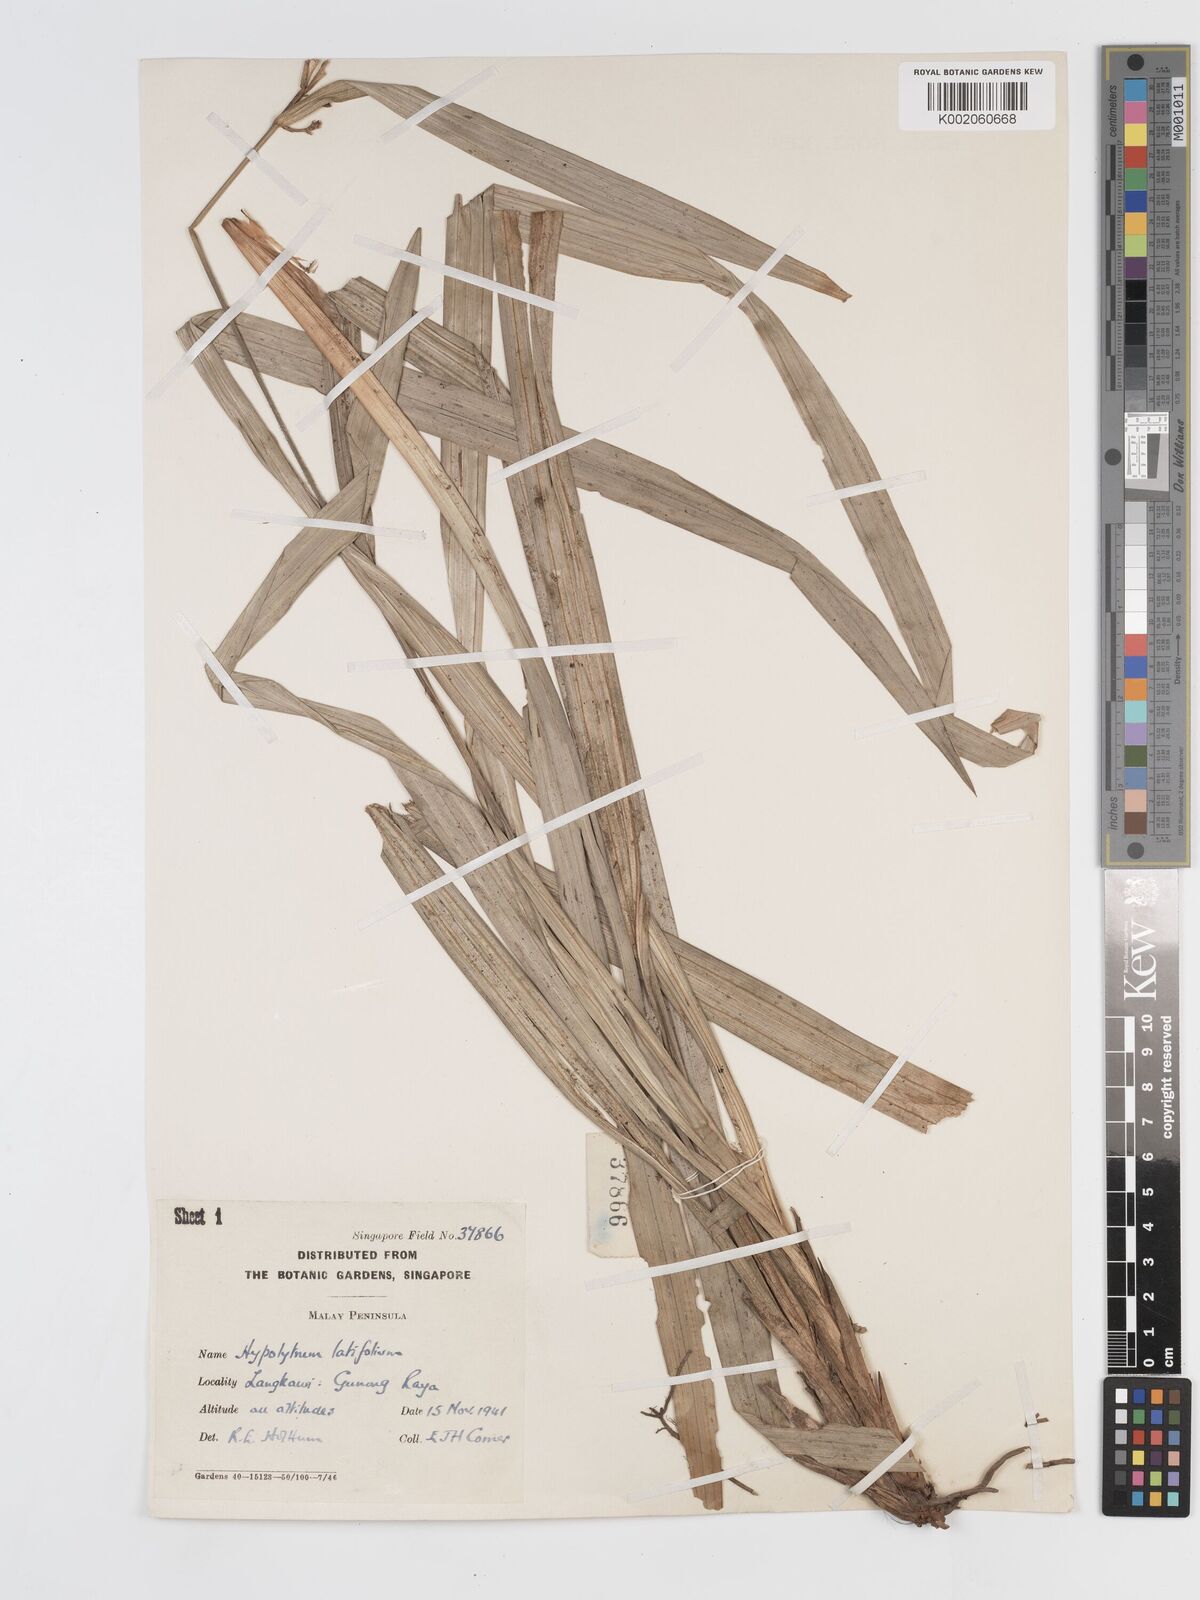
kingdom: Plantae
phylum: Tracheophyta
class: Liliopsida
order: Poales
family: Cyperaceae
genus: Hypolytrum
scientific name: Hypolytrum nemorum
